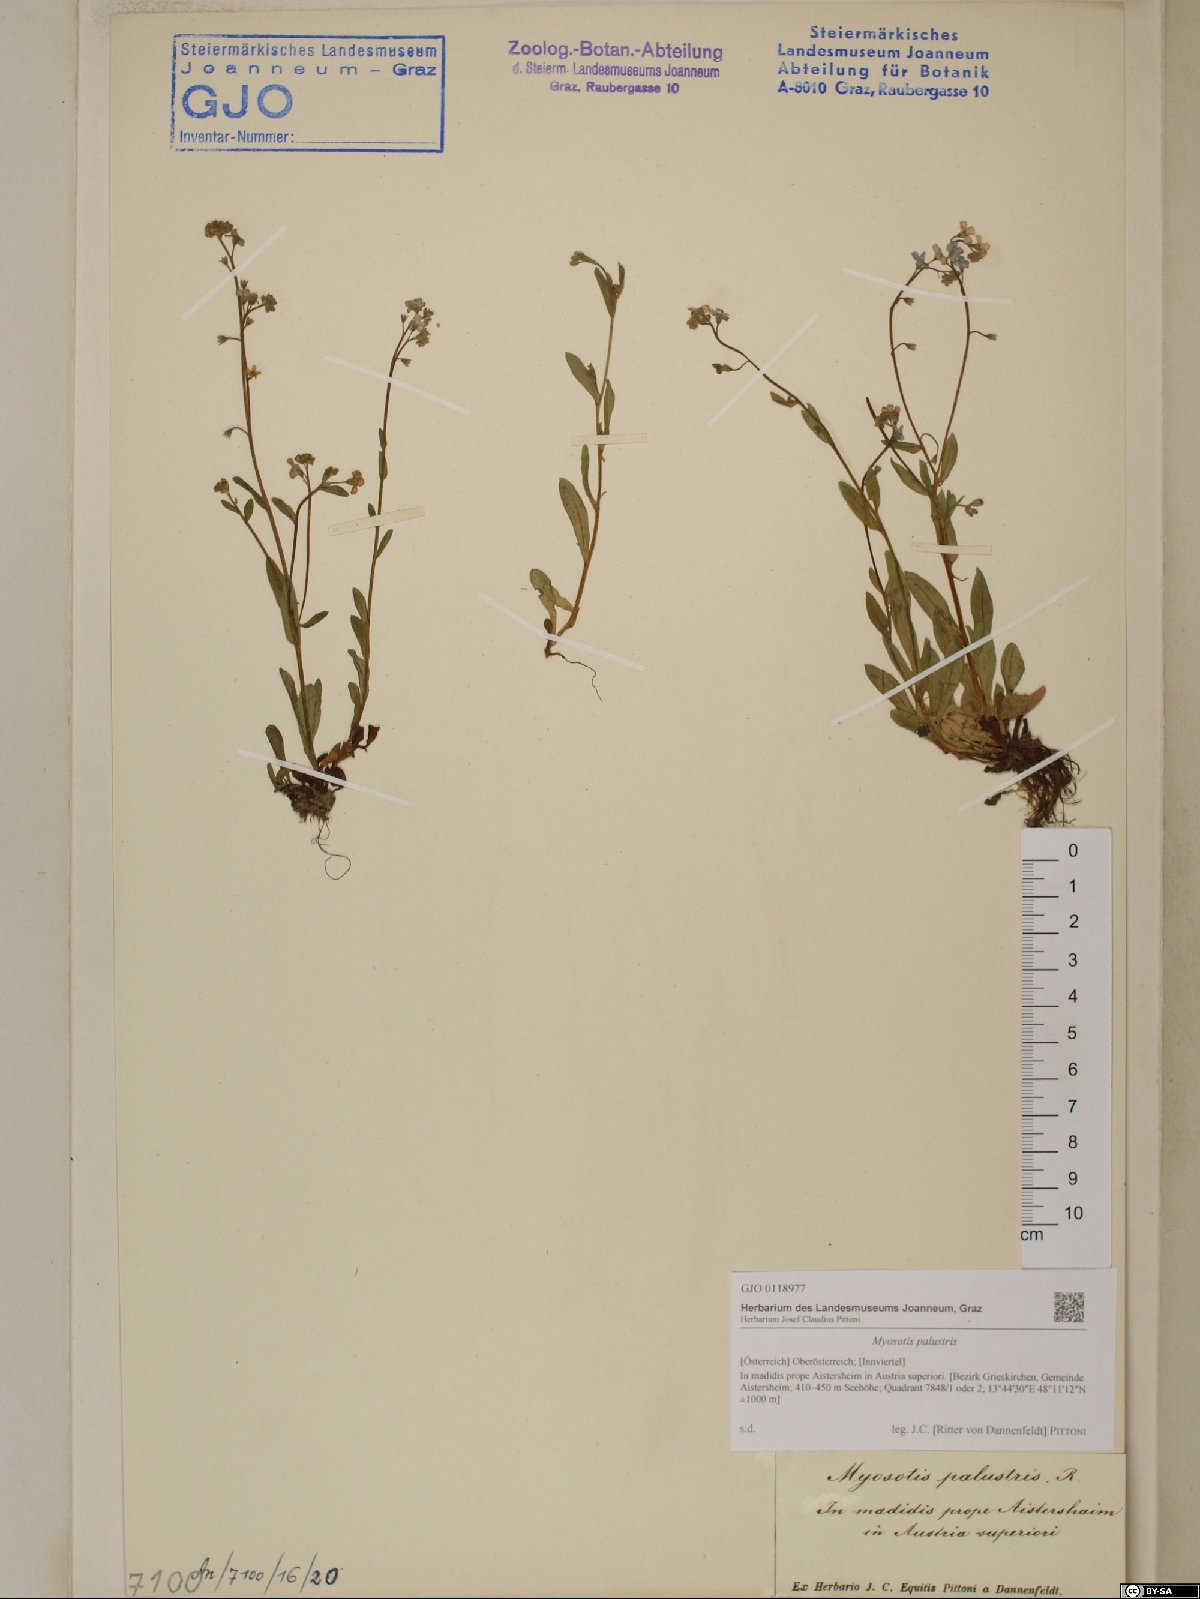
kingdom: Plantae
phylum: Tracheophyta
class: Magnoliopsida
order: Boraginales
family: Boraginaceae
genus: Myosotis
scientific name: Myosotis scorpioides
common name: Water forget-me-not
